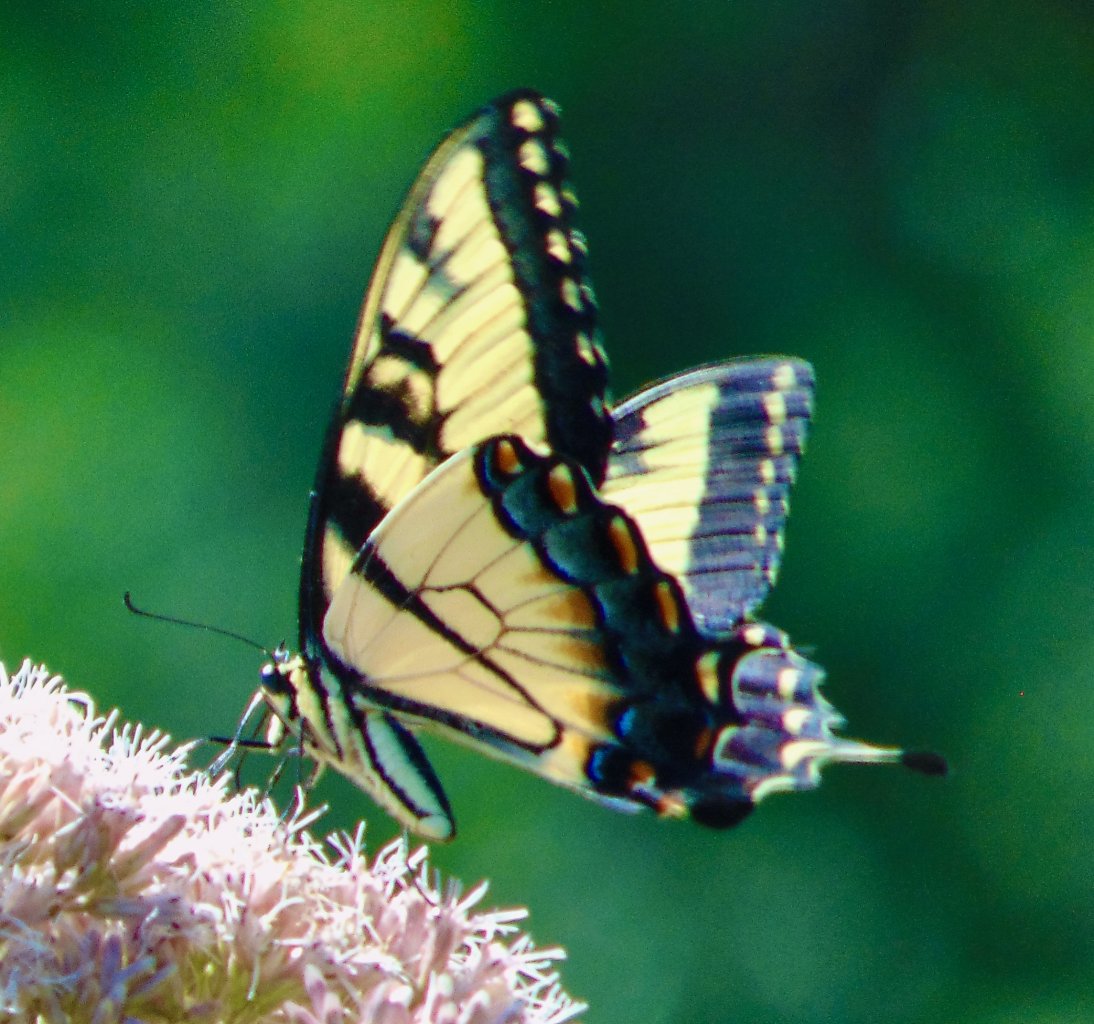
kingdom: Animalia
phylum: Arthropoda
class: Insecta
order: Lepidoptera
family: Papilionidae
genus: Pterourus
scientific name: Pterourus glaucus
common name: Eastern Tiger Swallowtail
